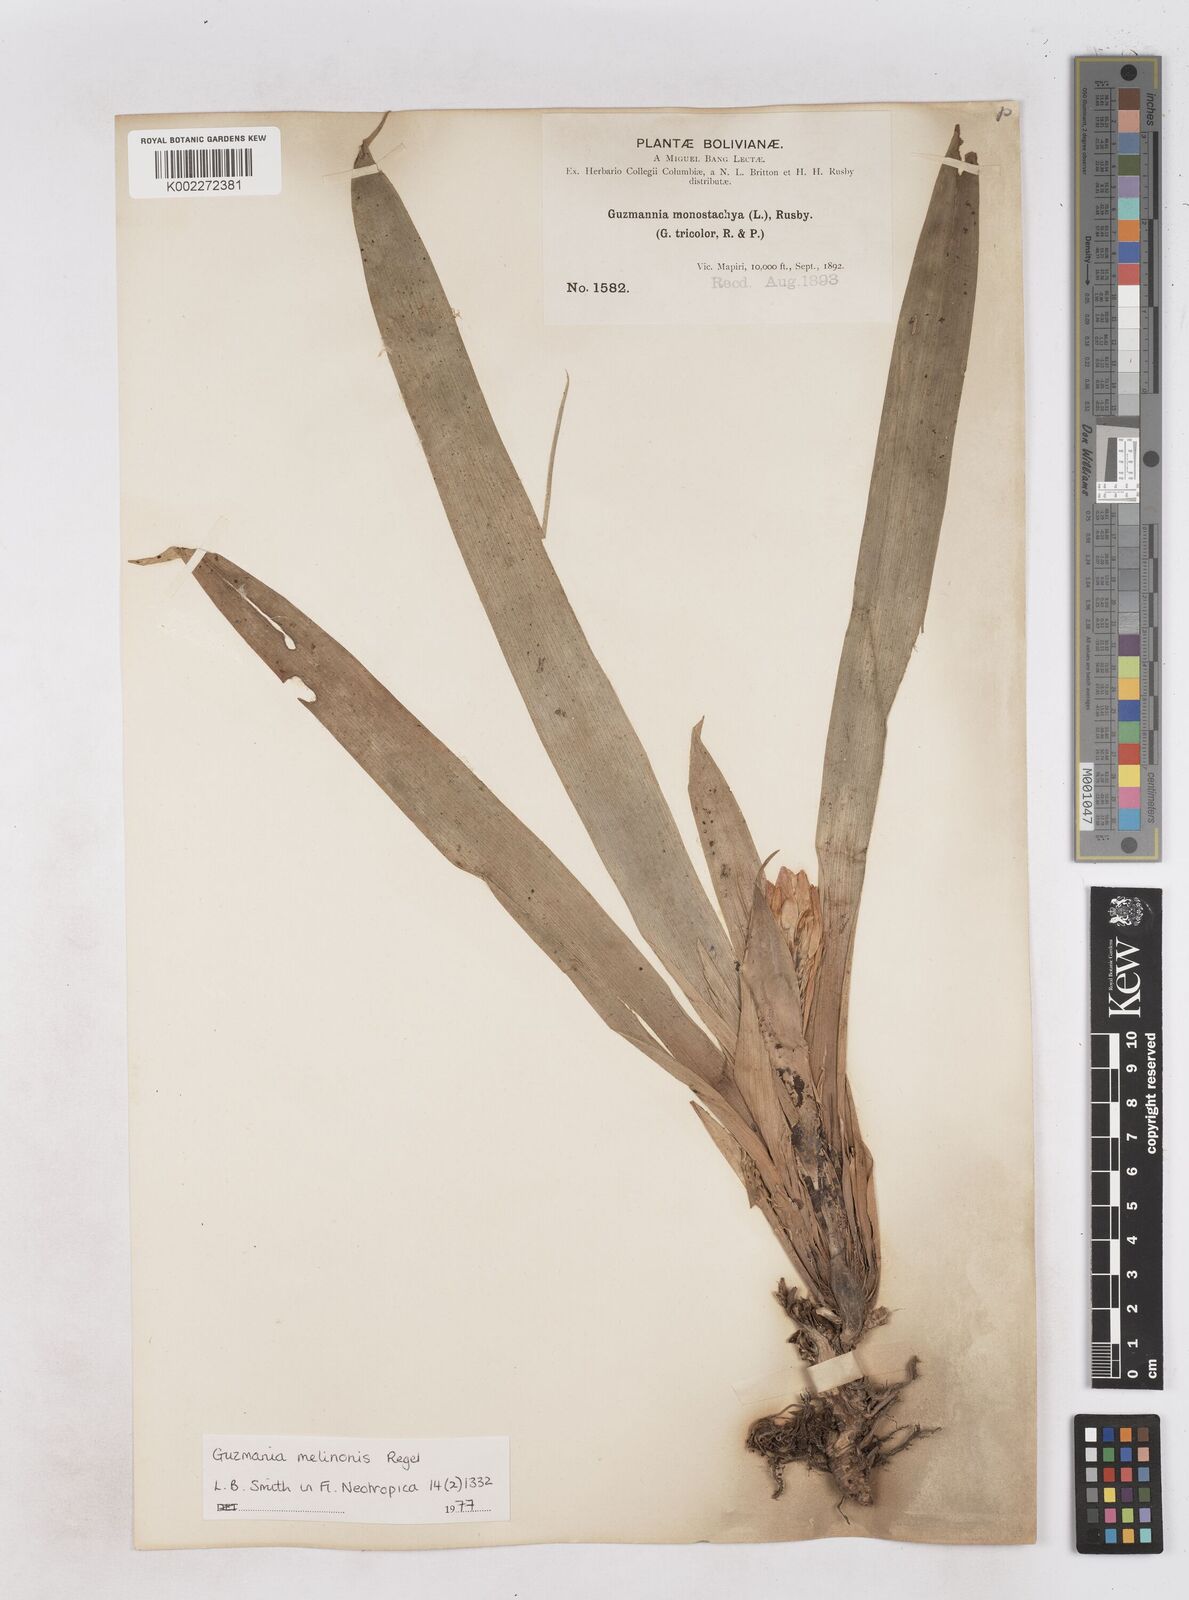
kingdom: Plantae
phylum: Tracheophyta
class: Liliopsida
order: Poales
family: Bromeliaceae
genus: Guzmania
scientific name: Guzmania melinonis
